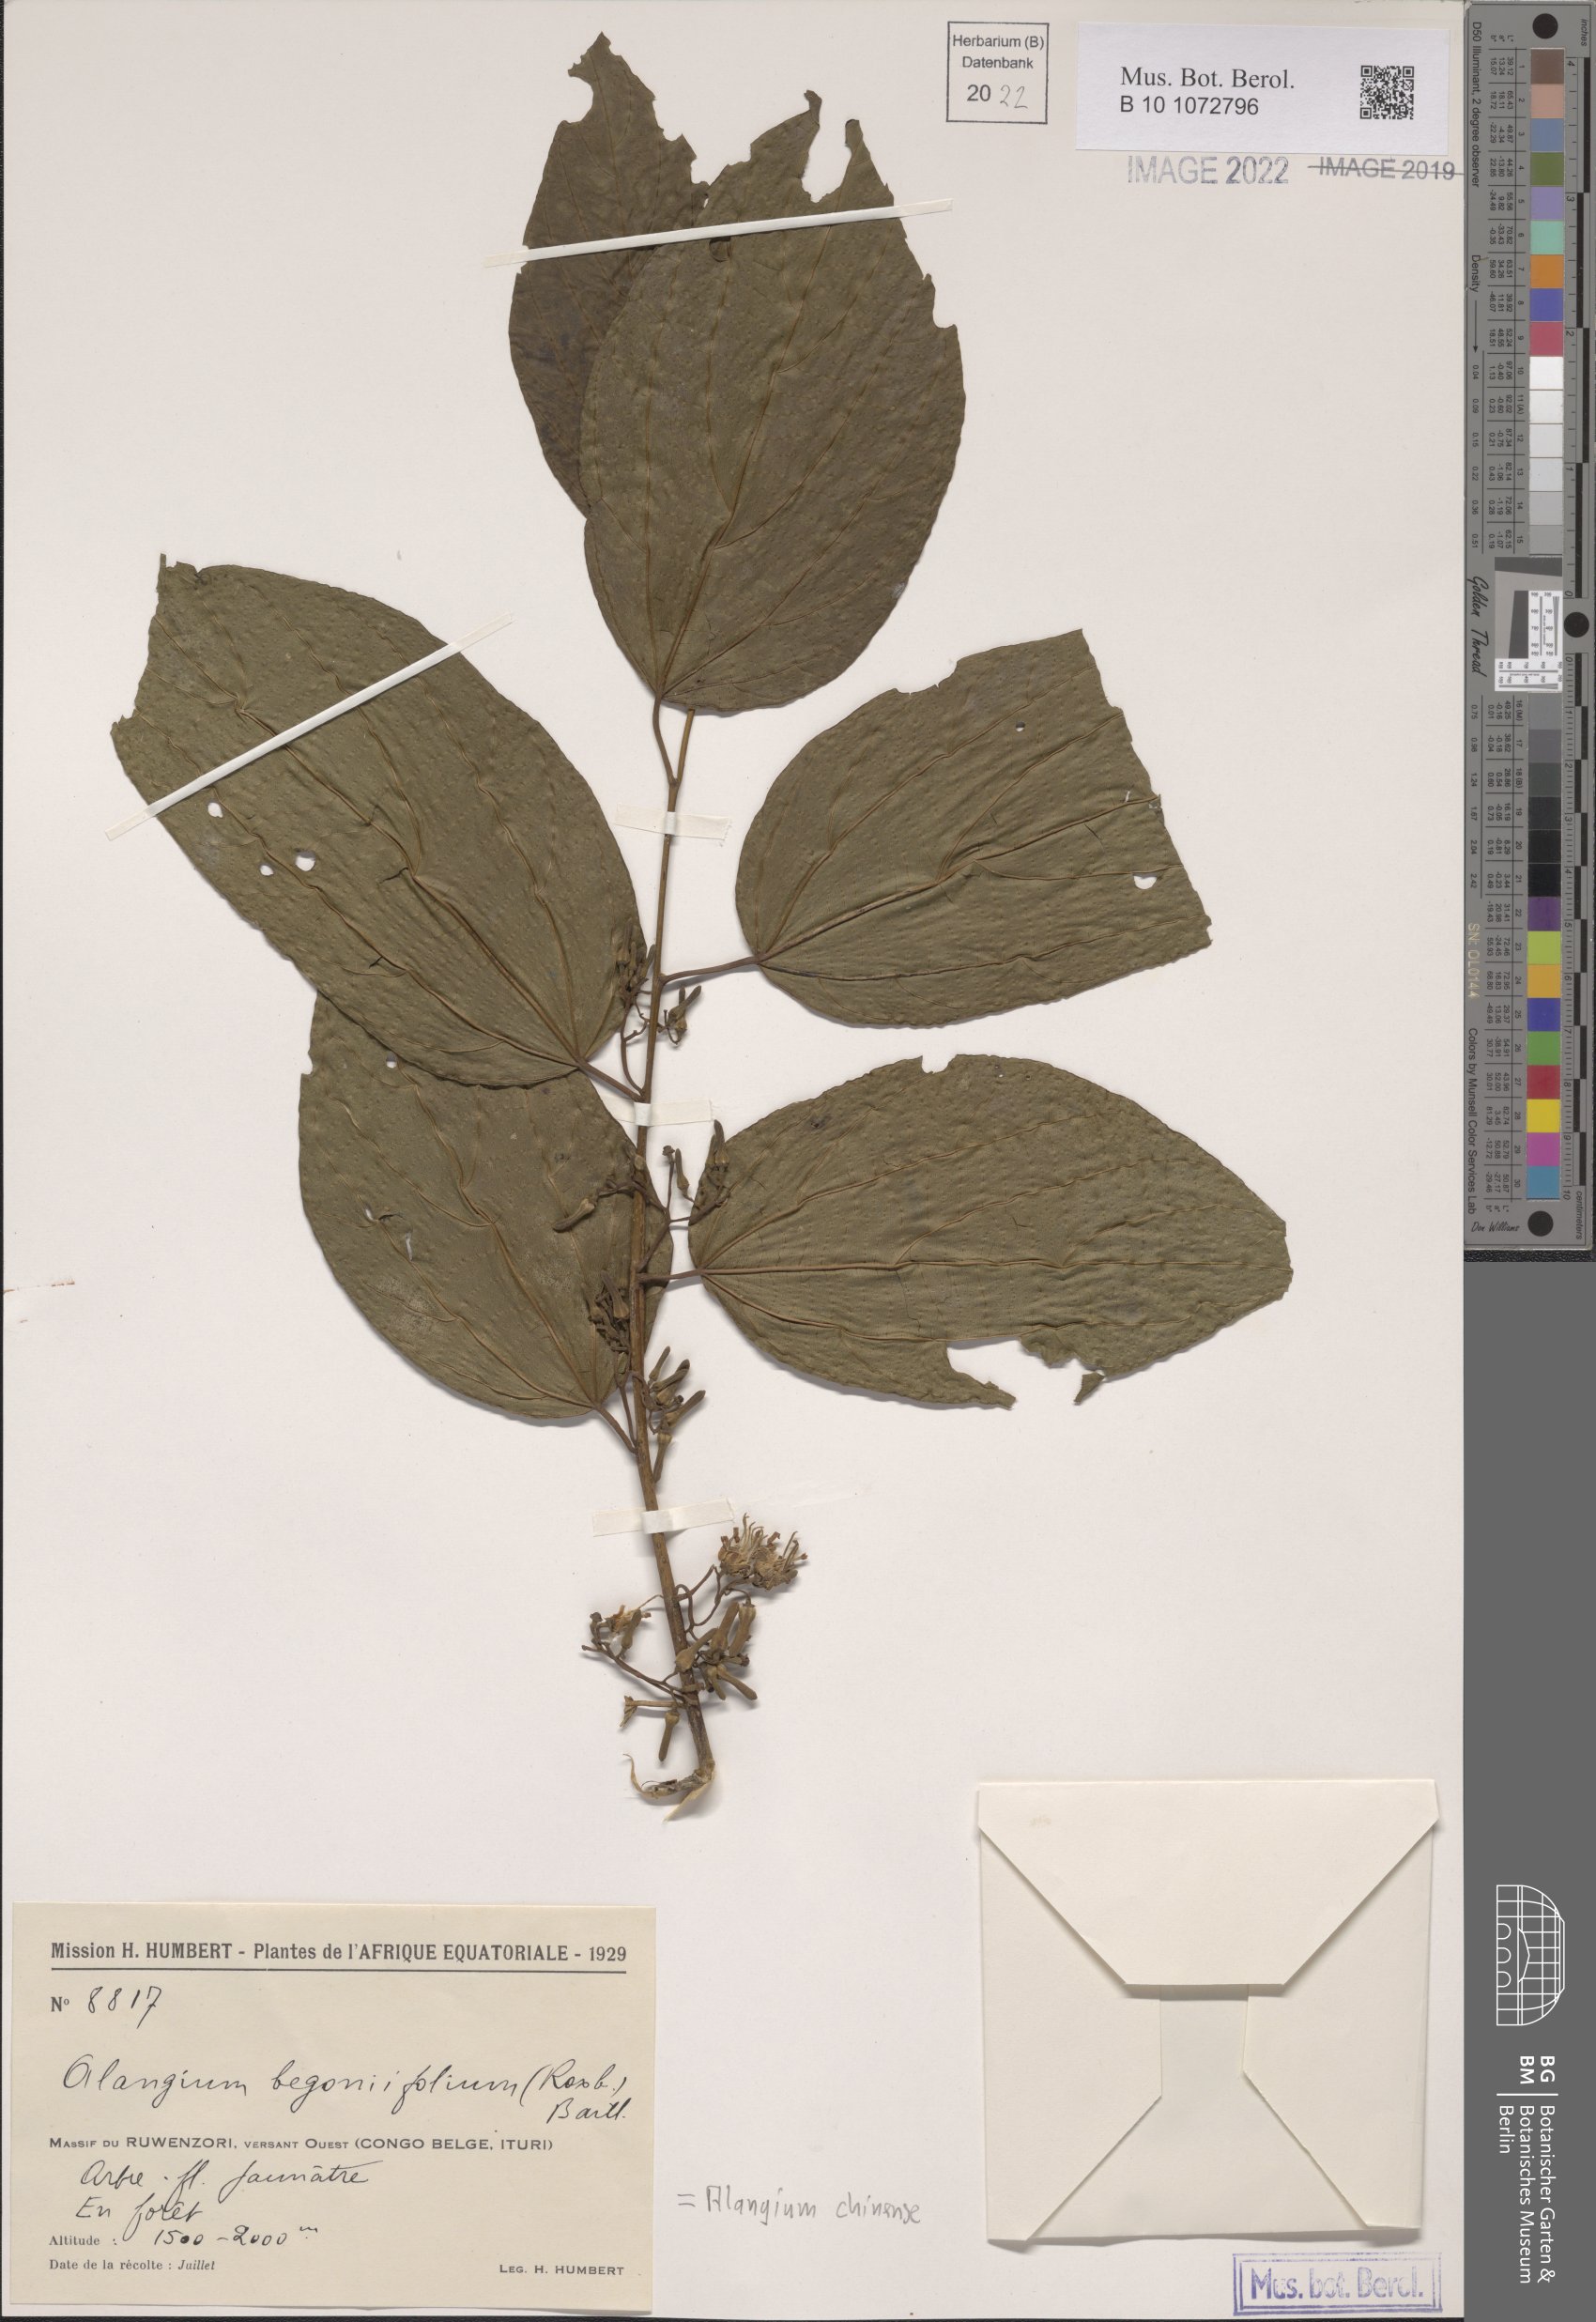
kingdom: Plantae
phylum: Tracheophyta
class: Magnoliopsida
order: Cornales
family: Cornaceae
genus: Alangium
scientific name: Alangium chinense
